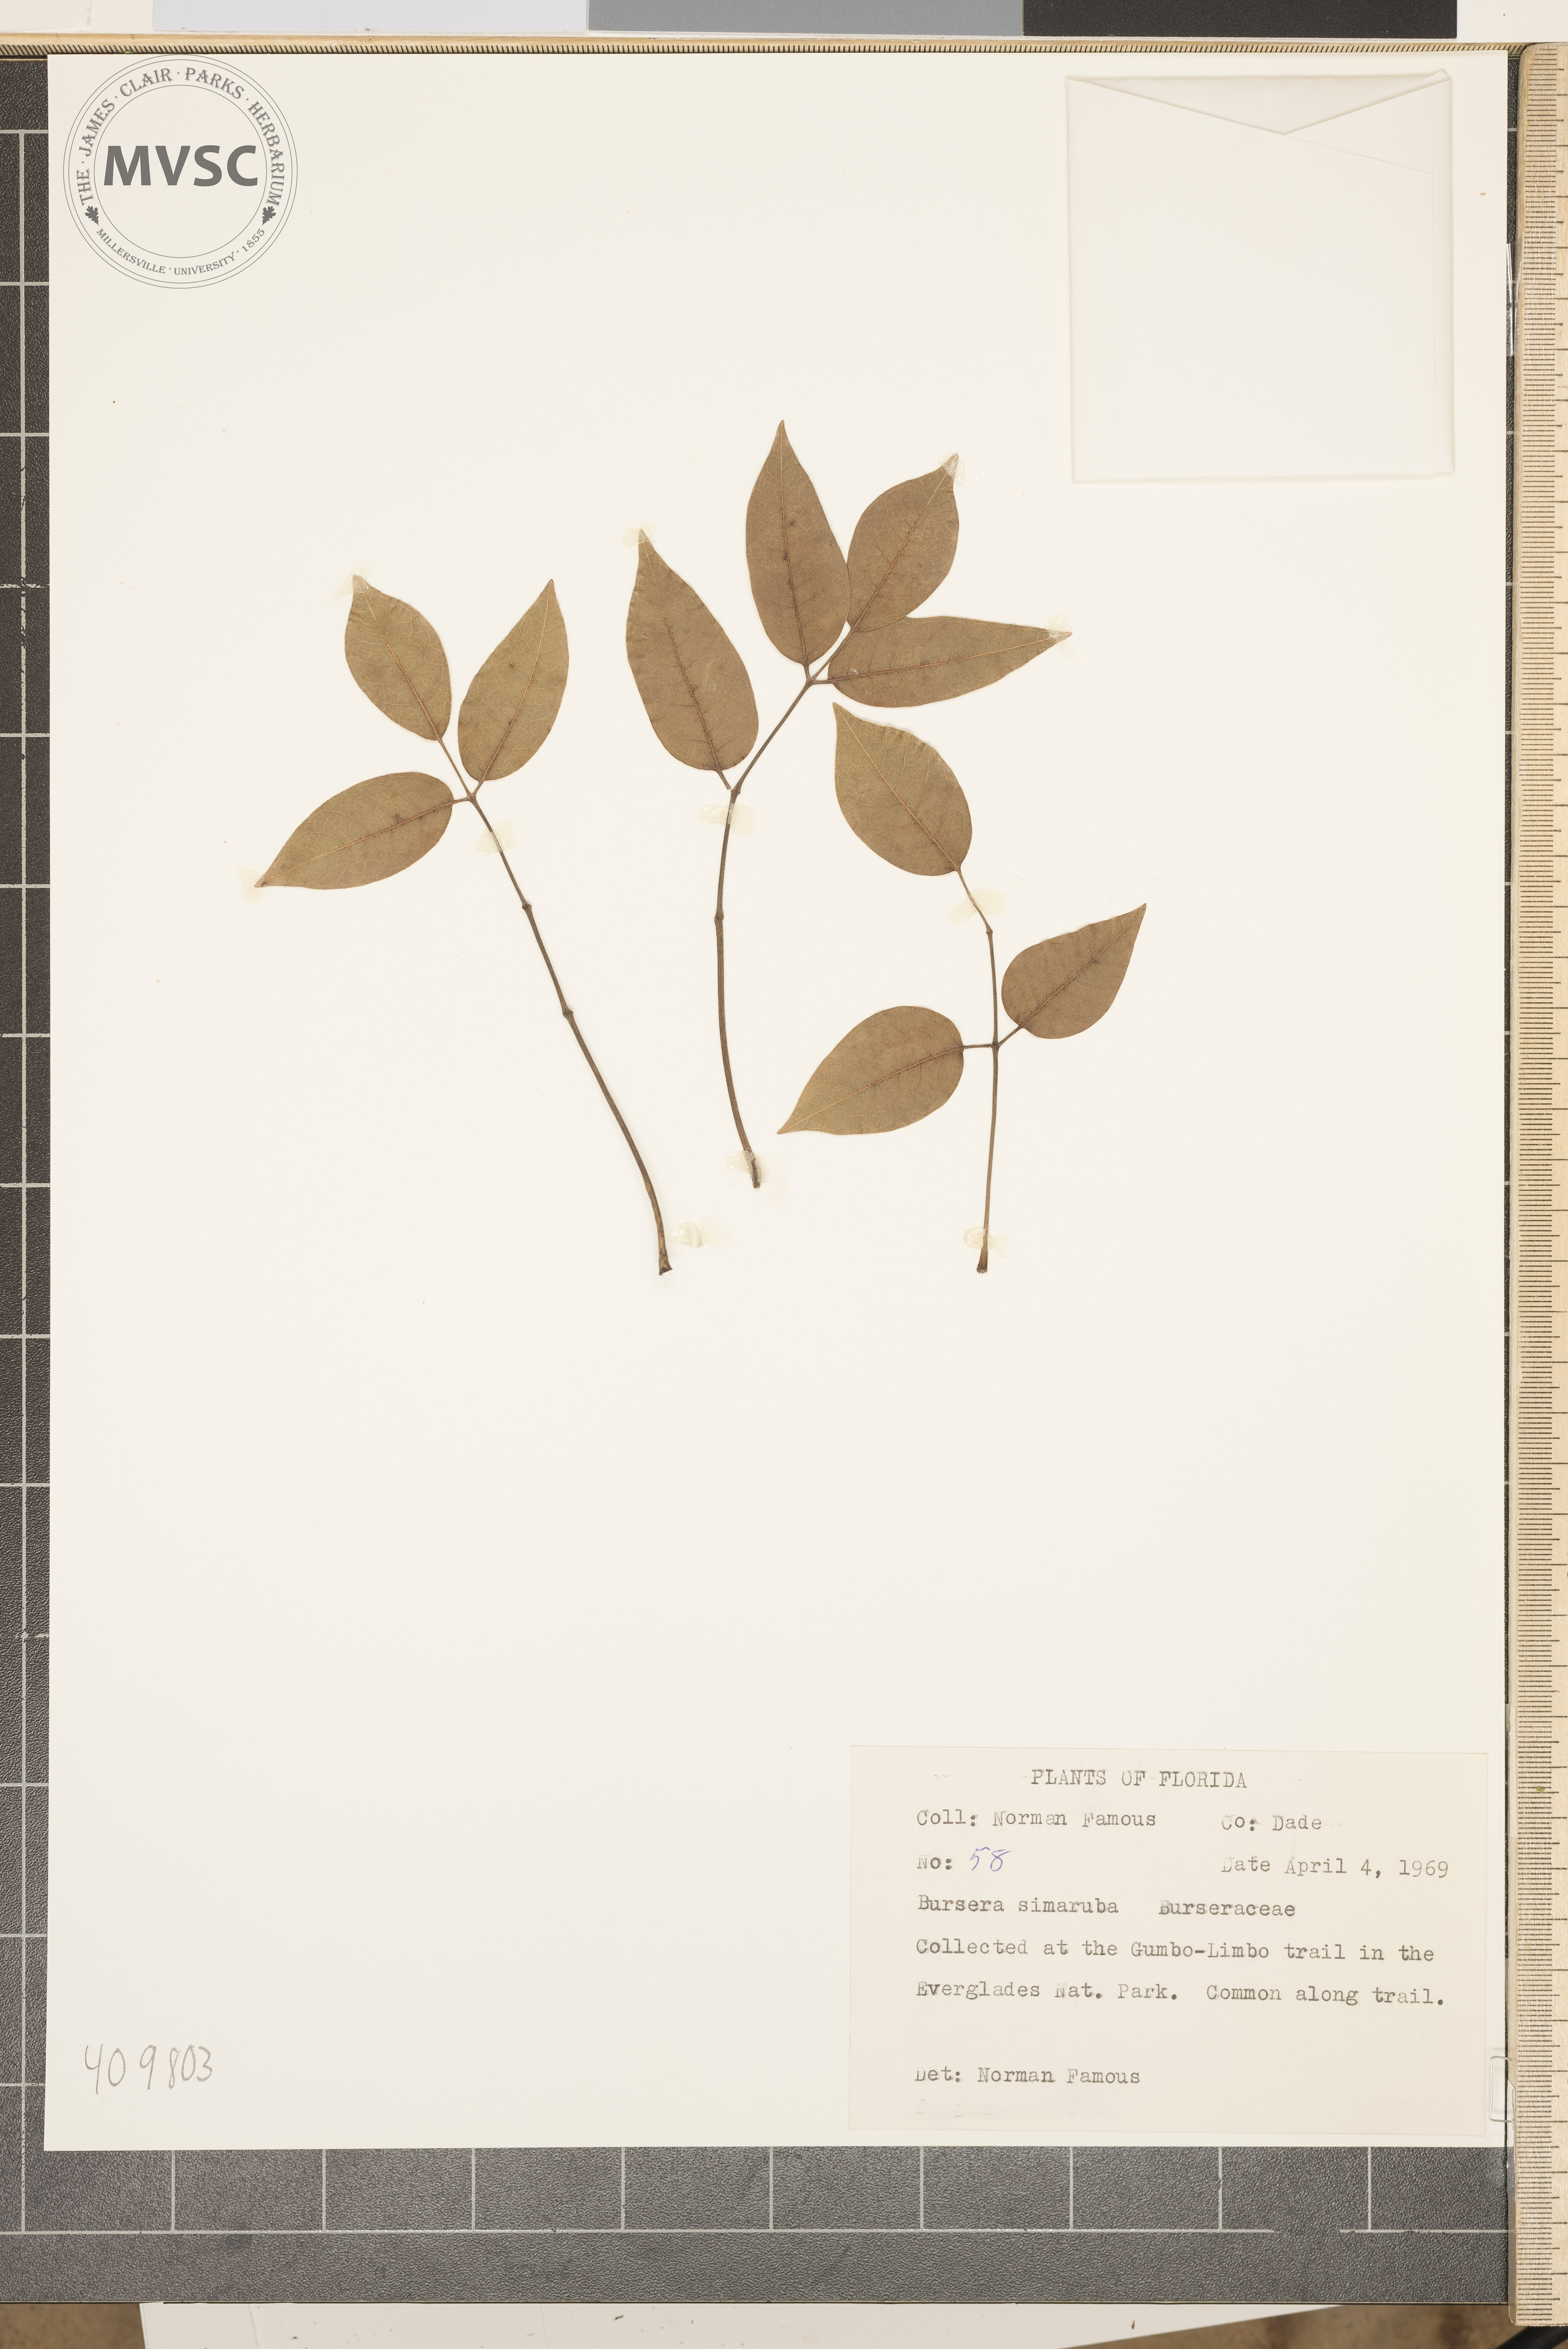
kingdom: Plantae
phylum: Tracheophyta
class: Magnoliopsida
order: Sapindales
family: Burseraceae
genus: Bursera
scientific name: Bursera simaruba
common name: Turpentine tree
